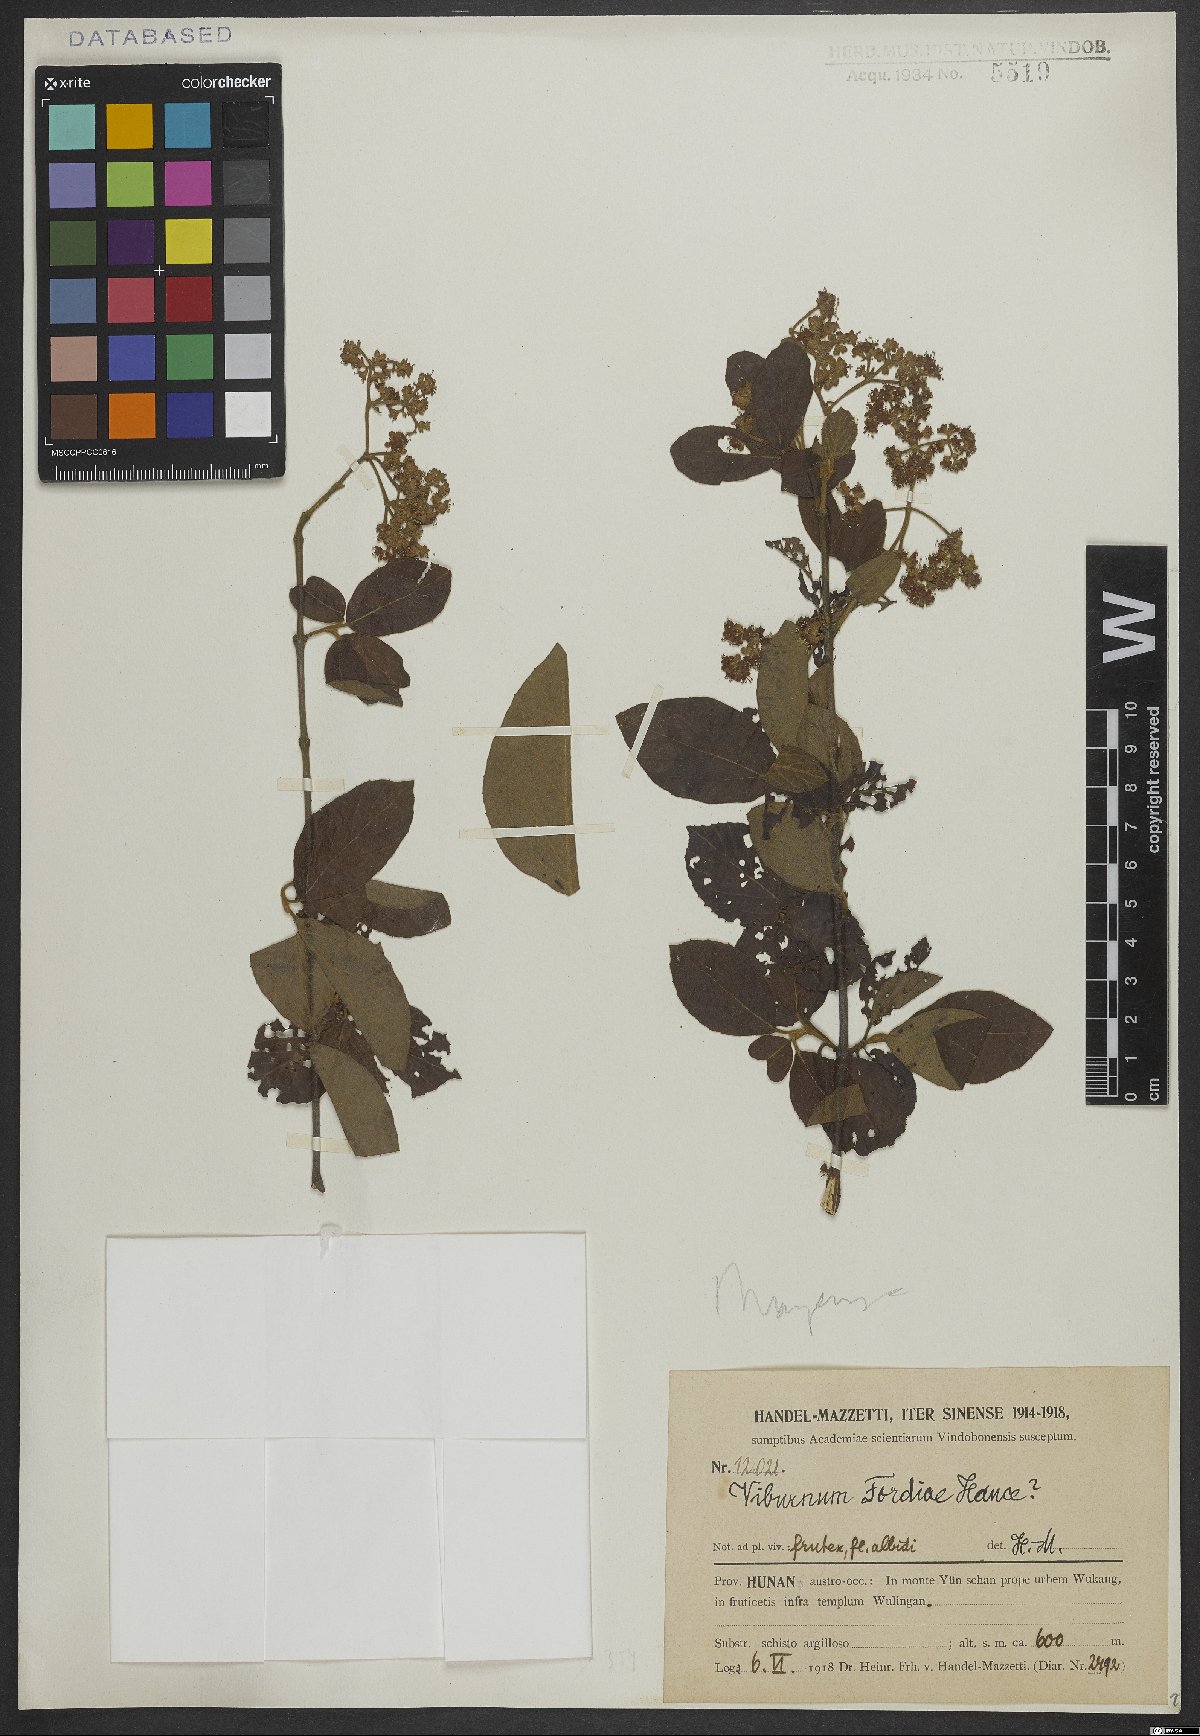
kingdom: Plantae
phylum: Tracheophyta
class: Magnoliopsida
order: Dipsacales
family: Viburnaceae
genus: Viburnum
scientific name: Viburnum fordiae
